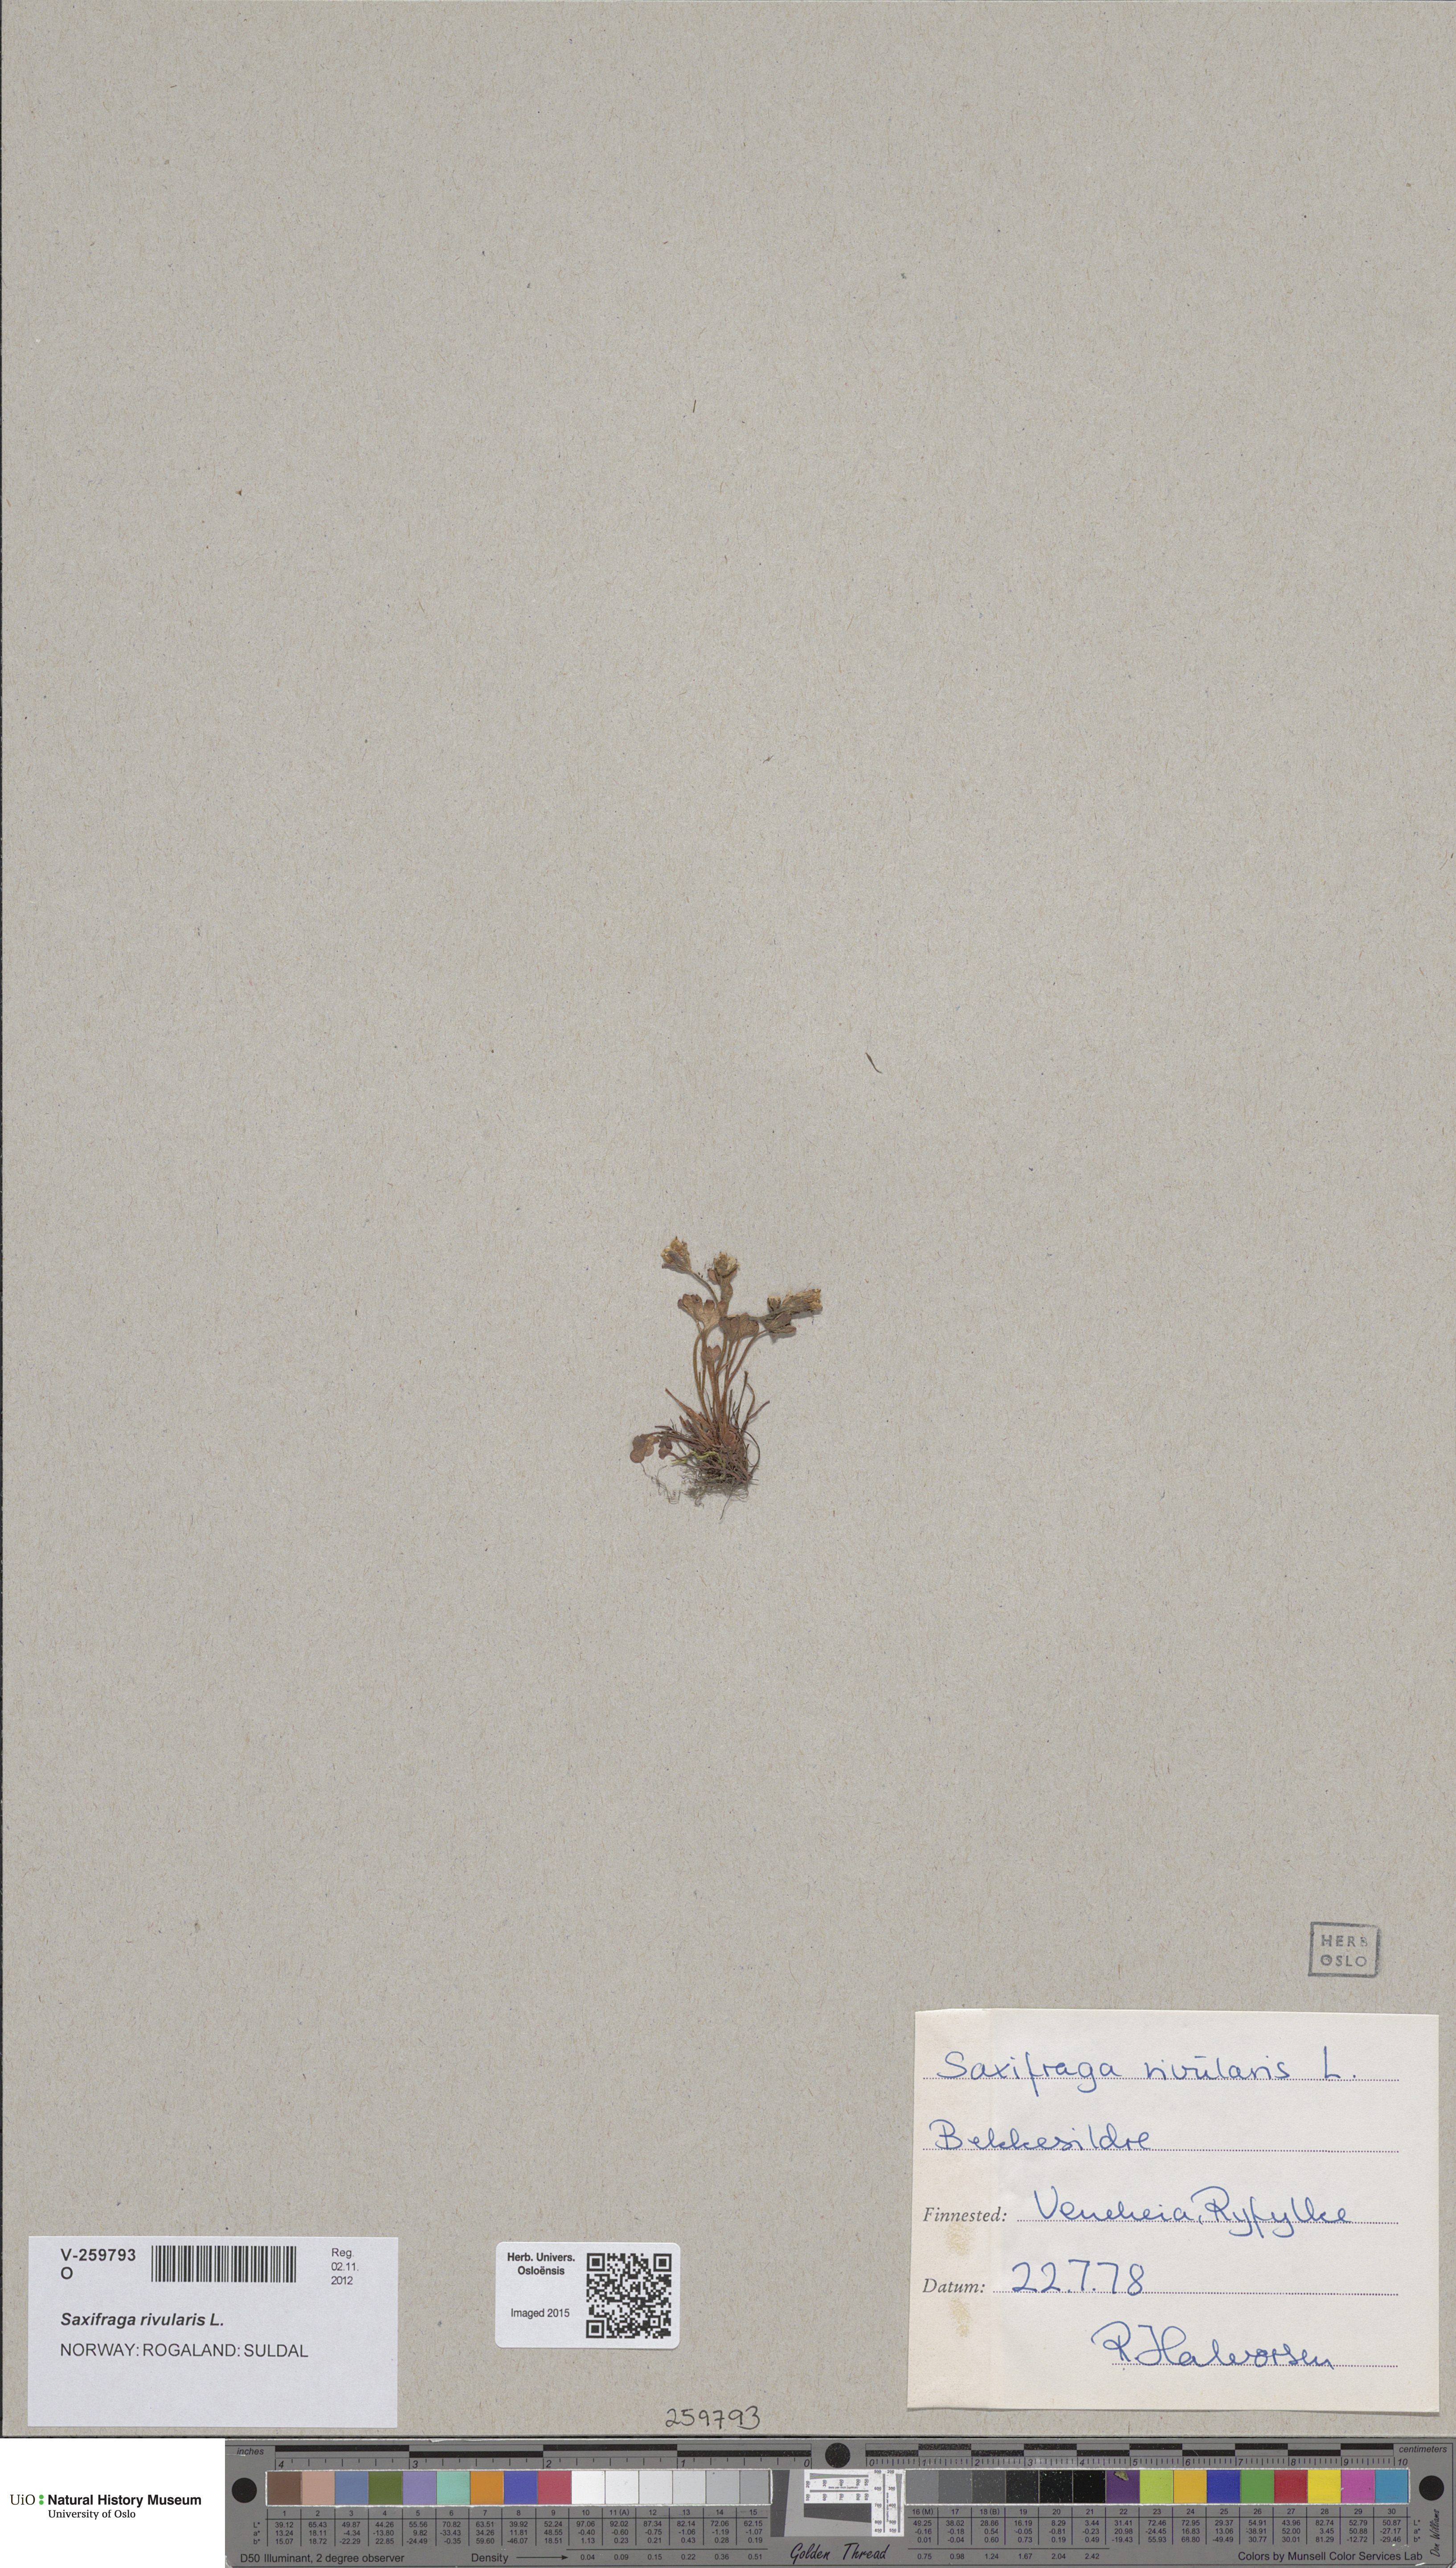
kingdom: Plantae
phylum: Tracheophyta
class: Magnoliopsida
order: Saxifragales
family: Saxifragaceae
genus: Saxifraga
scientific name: Saxifraga rivularis
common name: Highland saxifrage
